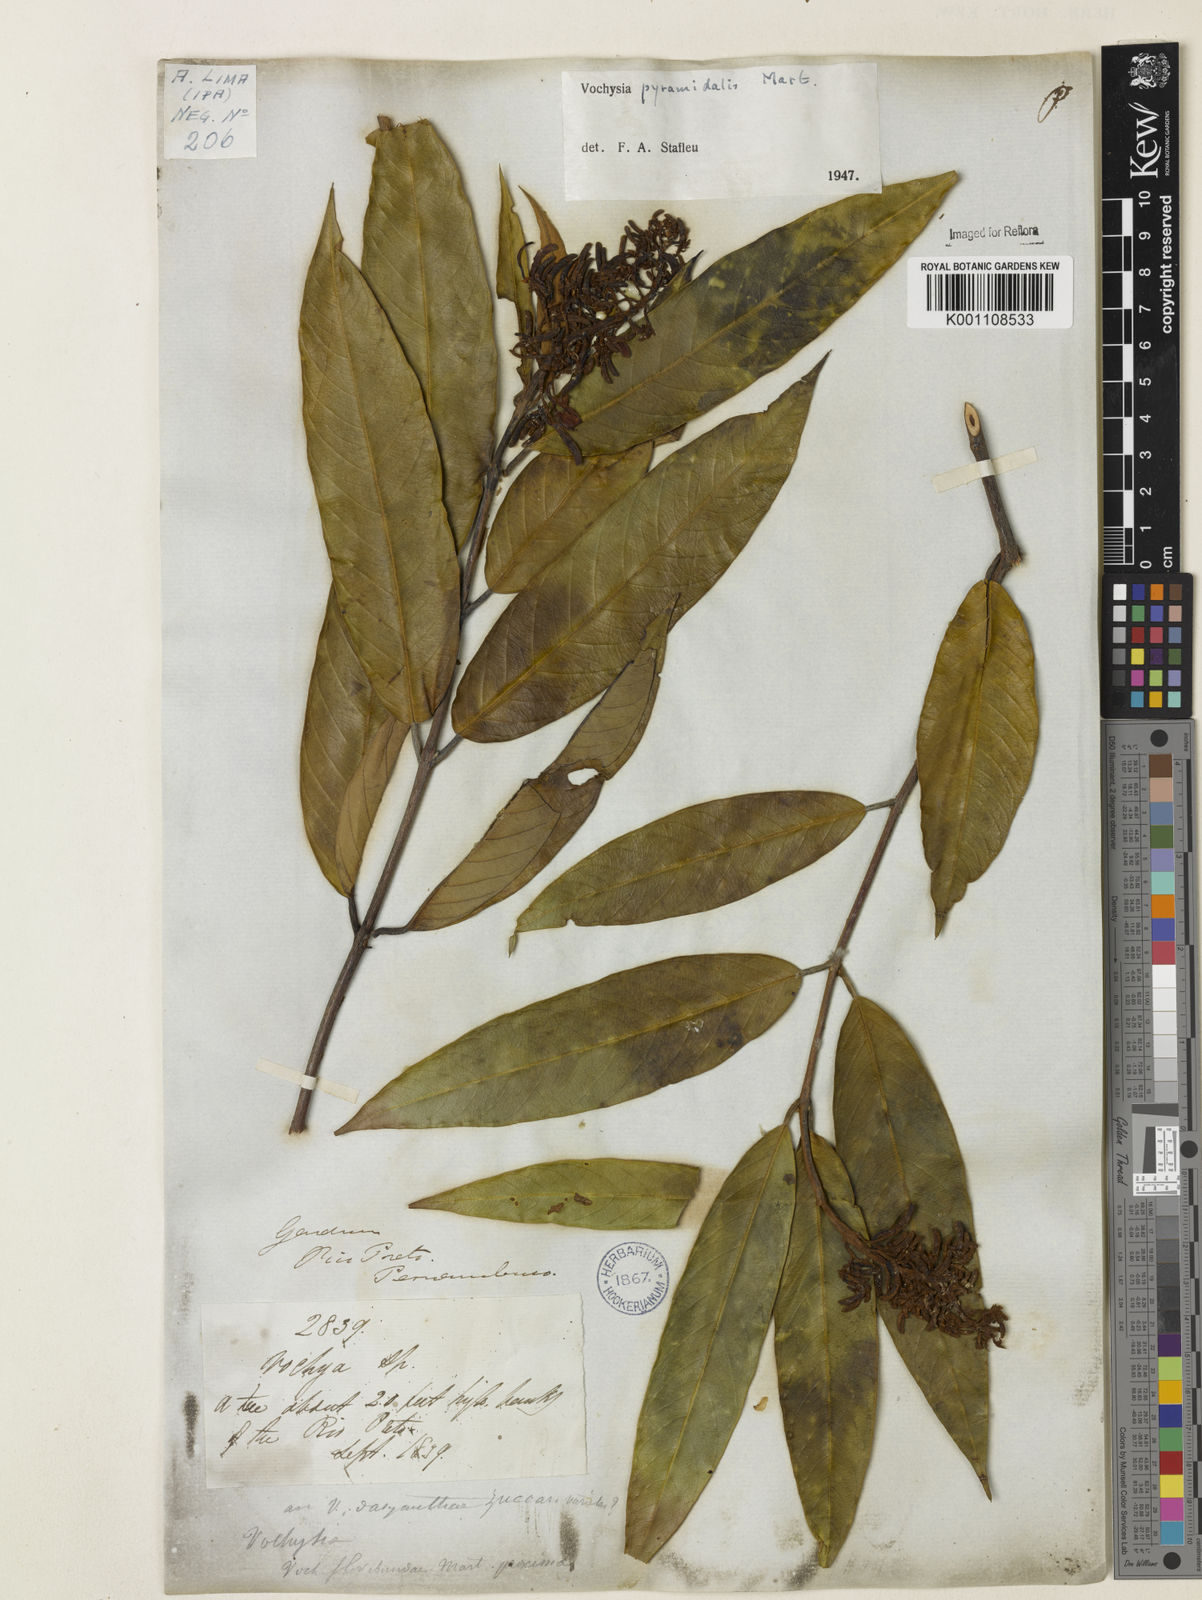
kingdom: Plantae
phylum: Tracheophyta
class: Magnoliopsida
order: Myrtales
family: Vochysiaceae
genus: Vochysia
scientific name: Vochysia pyramidalis
